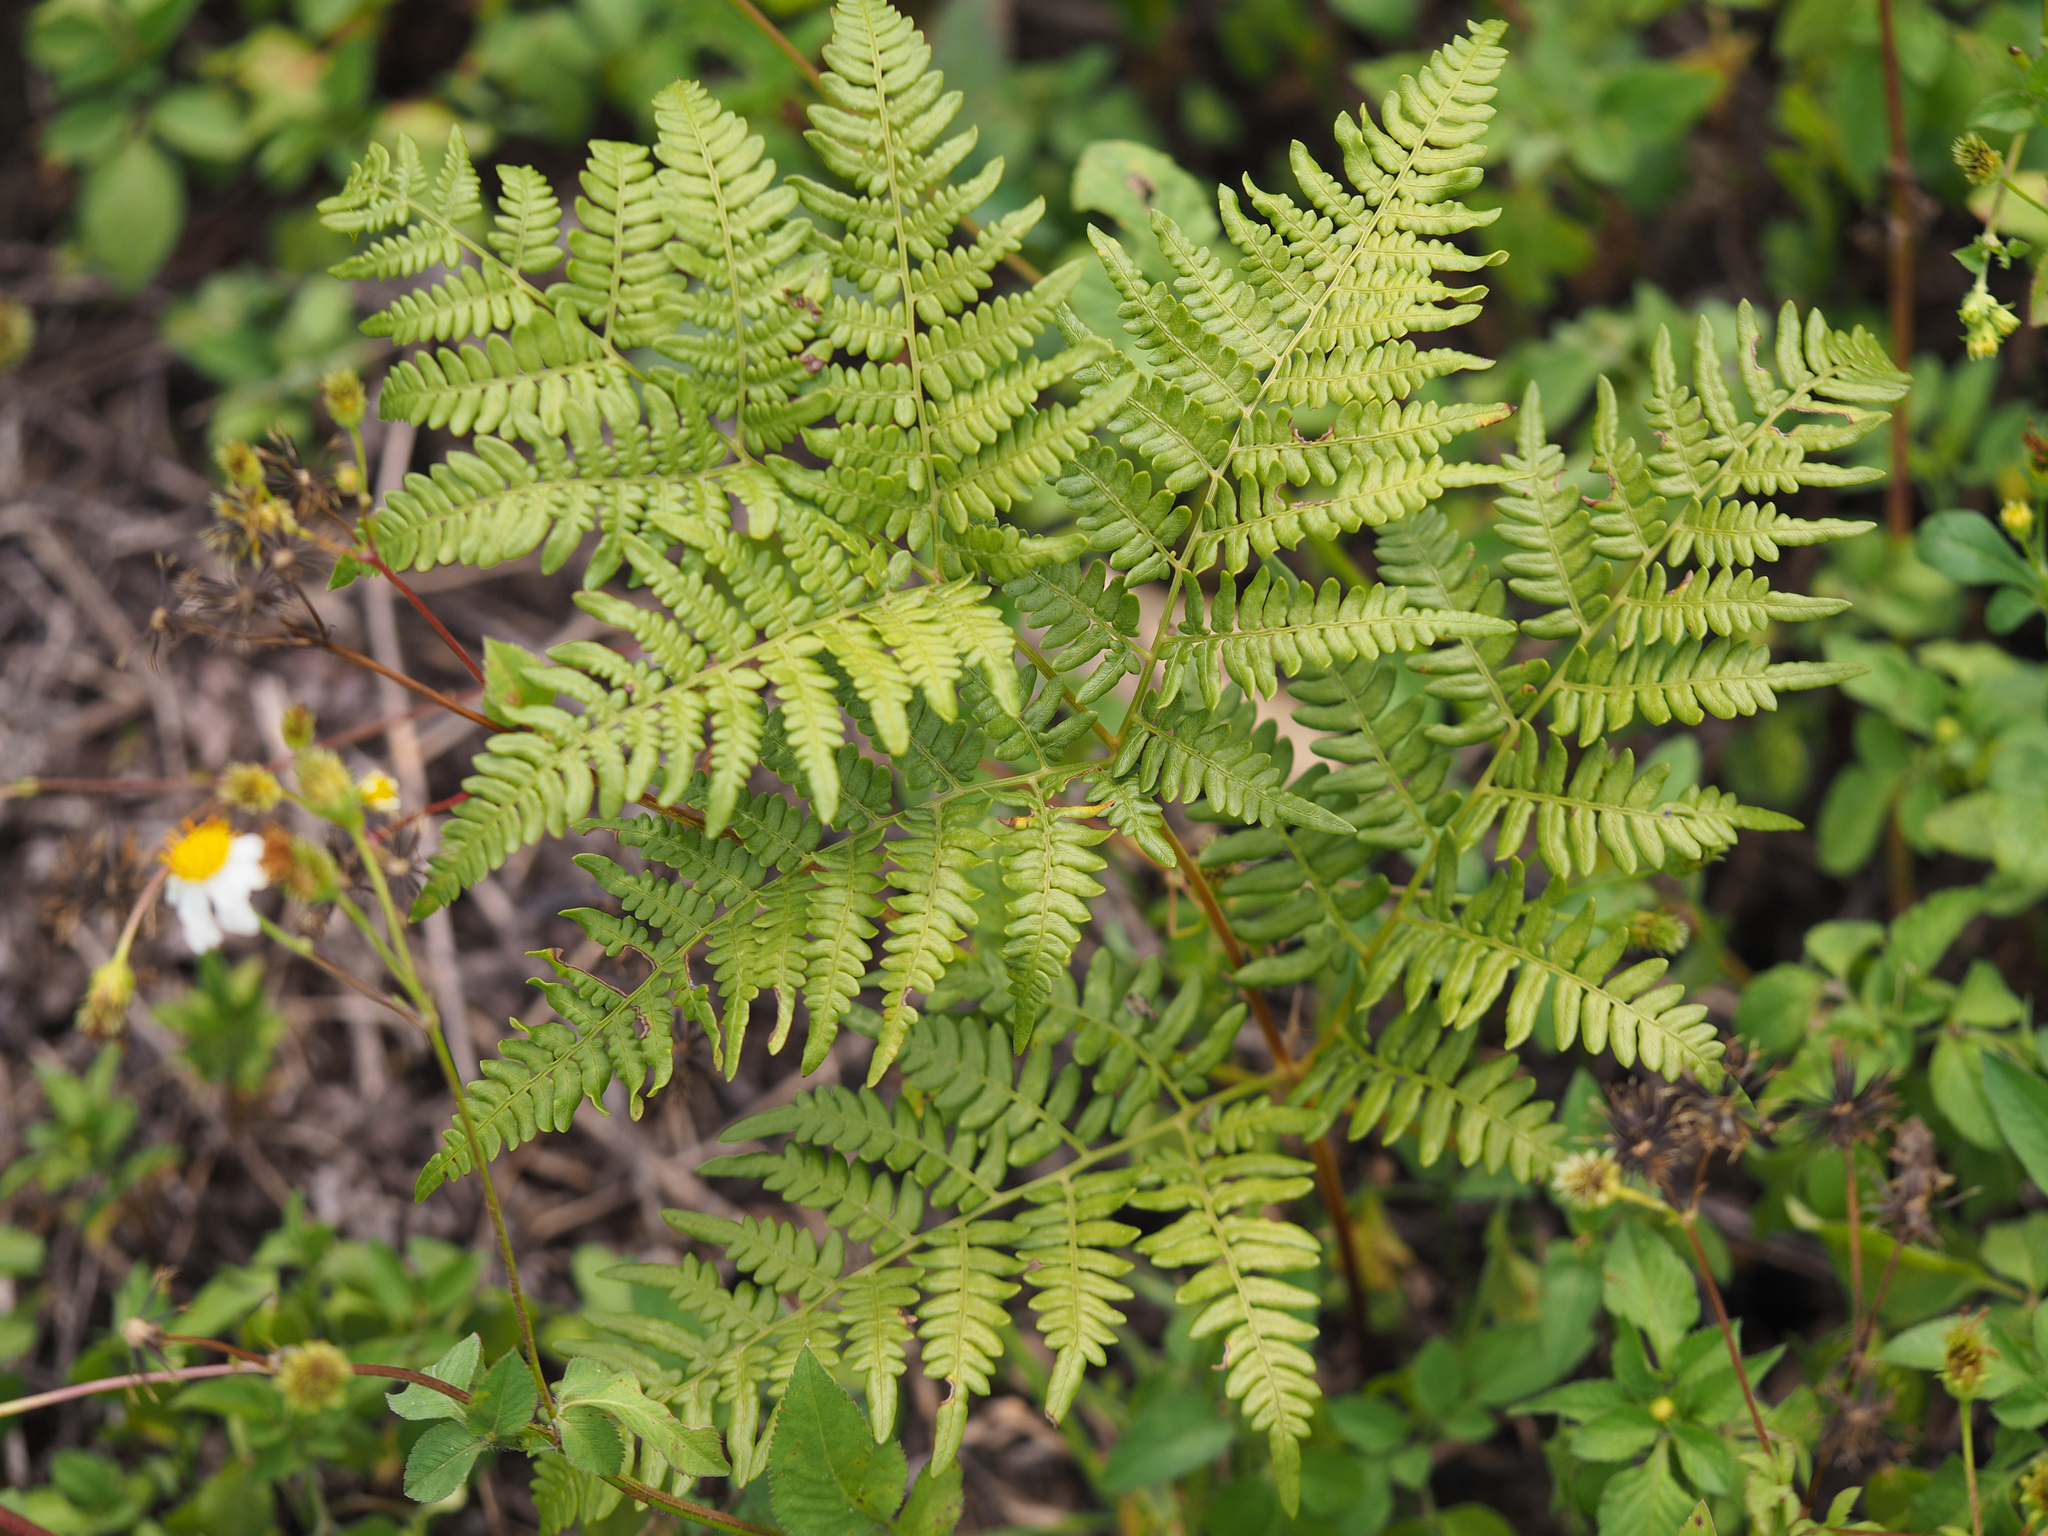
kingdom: Plantae
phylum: Tracheophyta
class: Polypodiopsida
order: Polypodiales
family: Dennstaedtiaceae
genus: Pteridium
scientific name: Pteridium aquilinum
